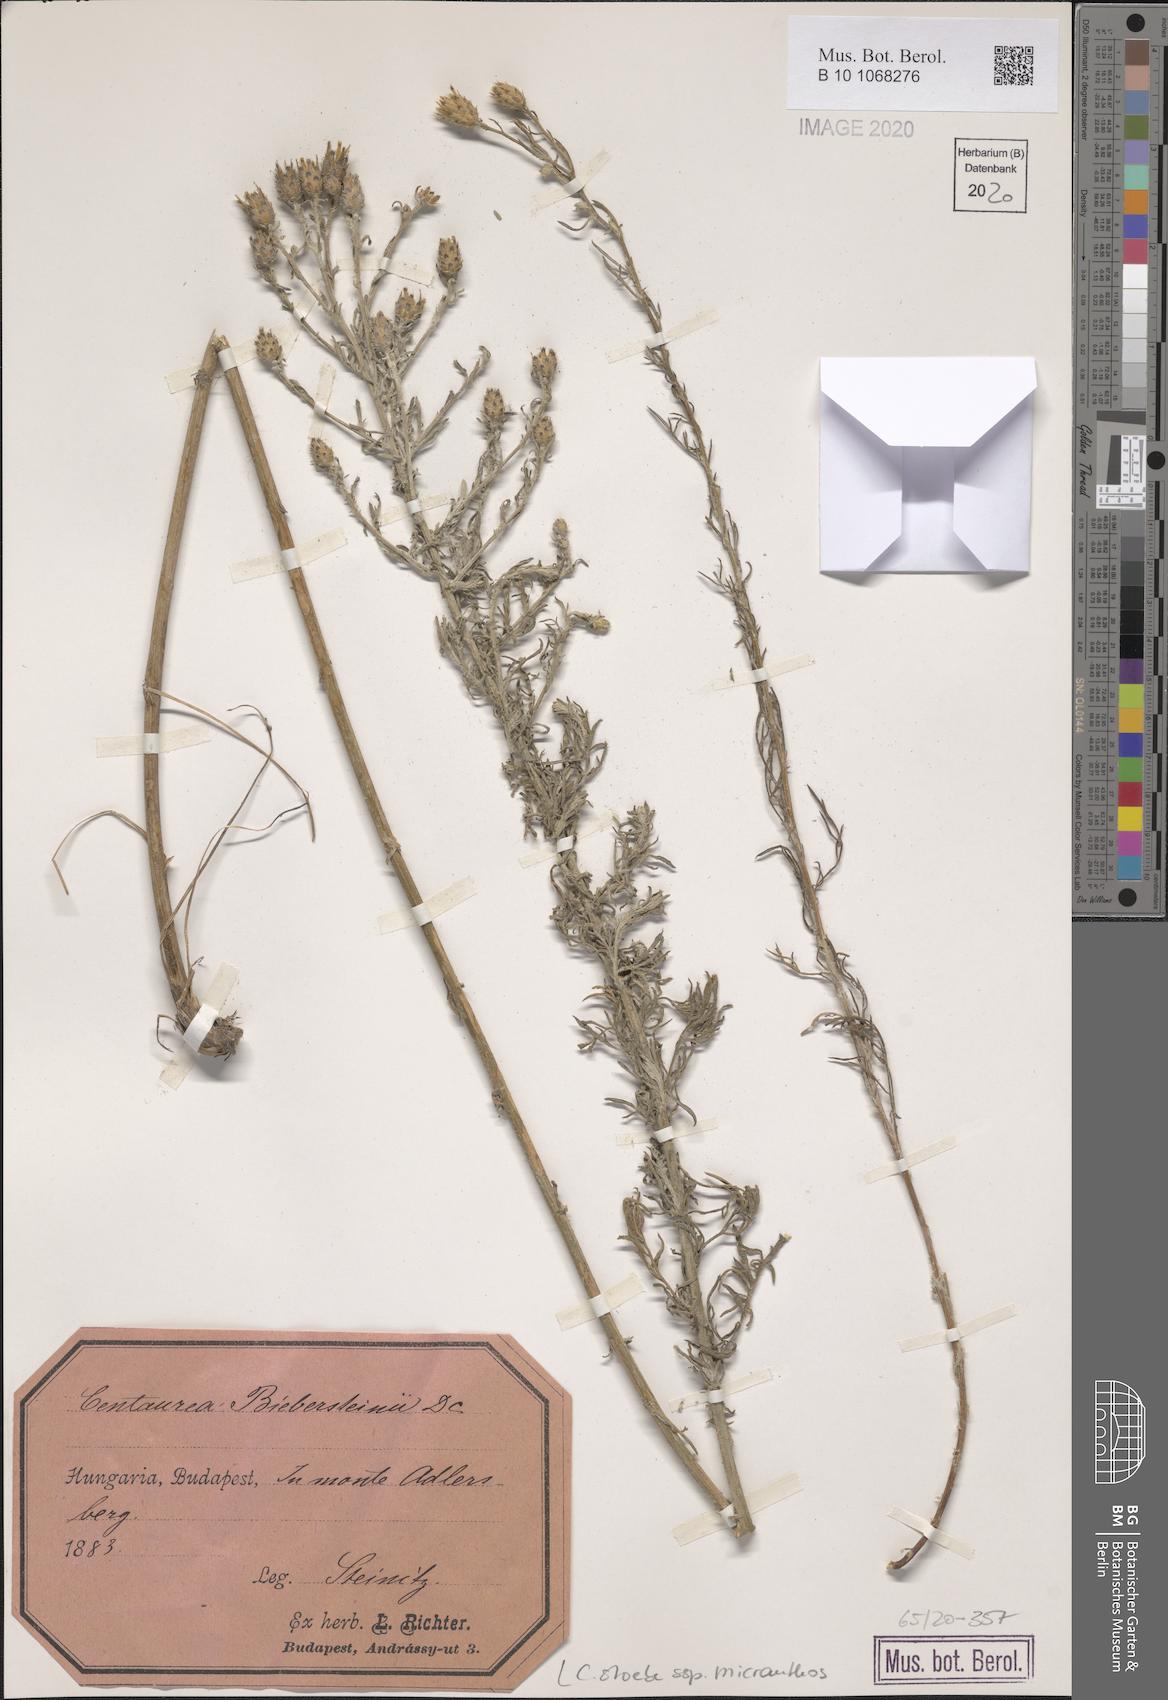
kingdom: Plantae
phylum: Tracheophyta
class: Magnoliopsida
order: Asterales
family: Asteraceae
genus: Centaurea
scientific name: Centaurea australis
